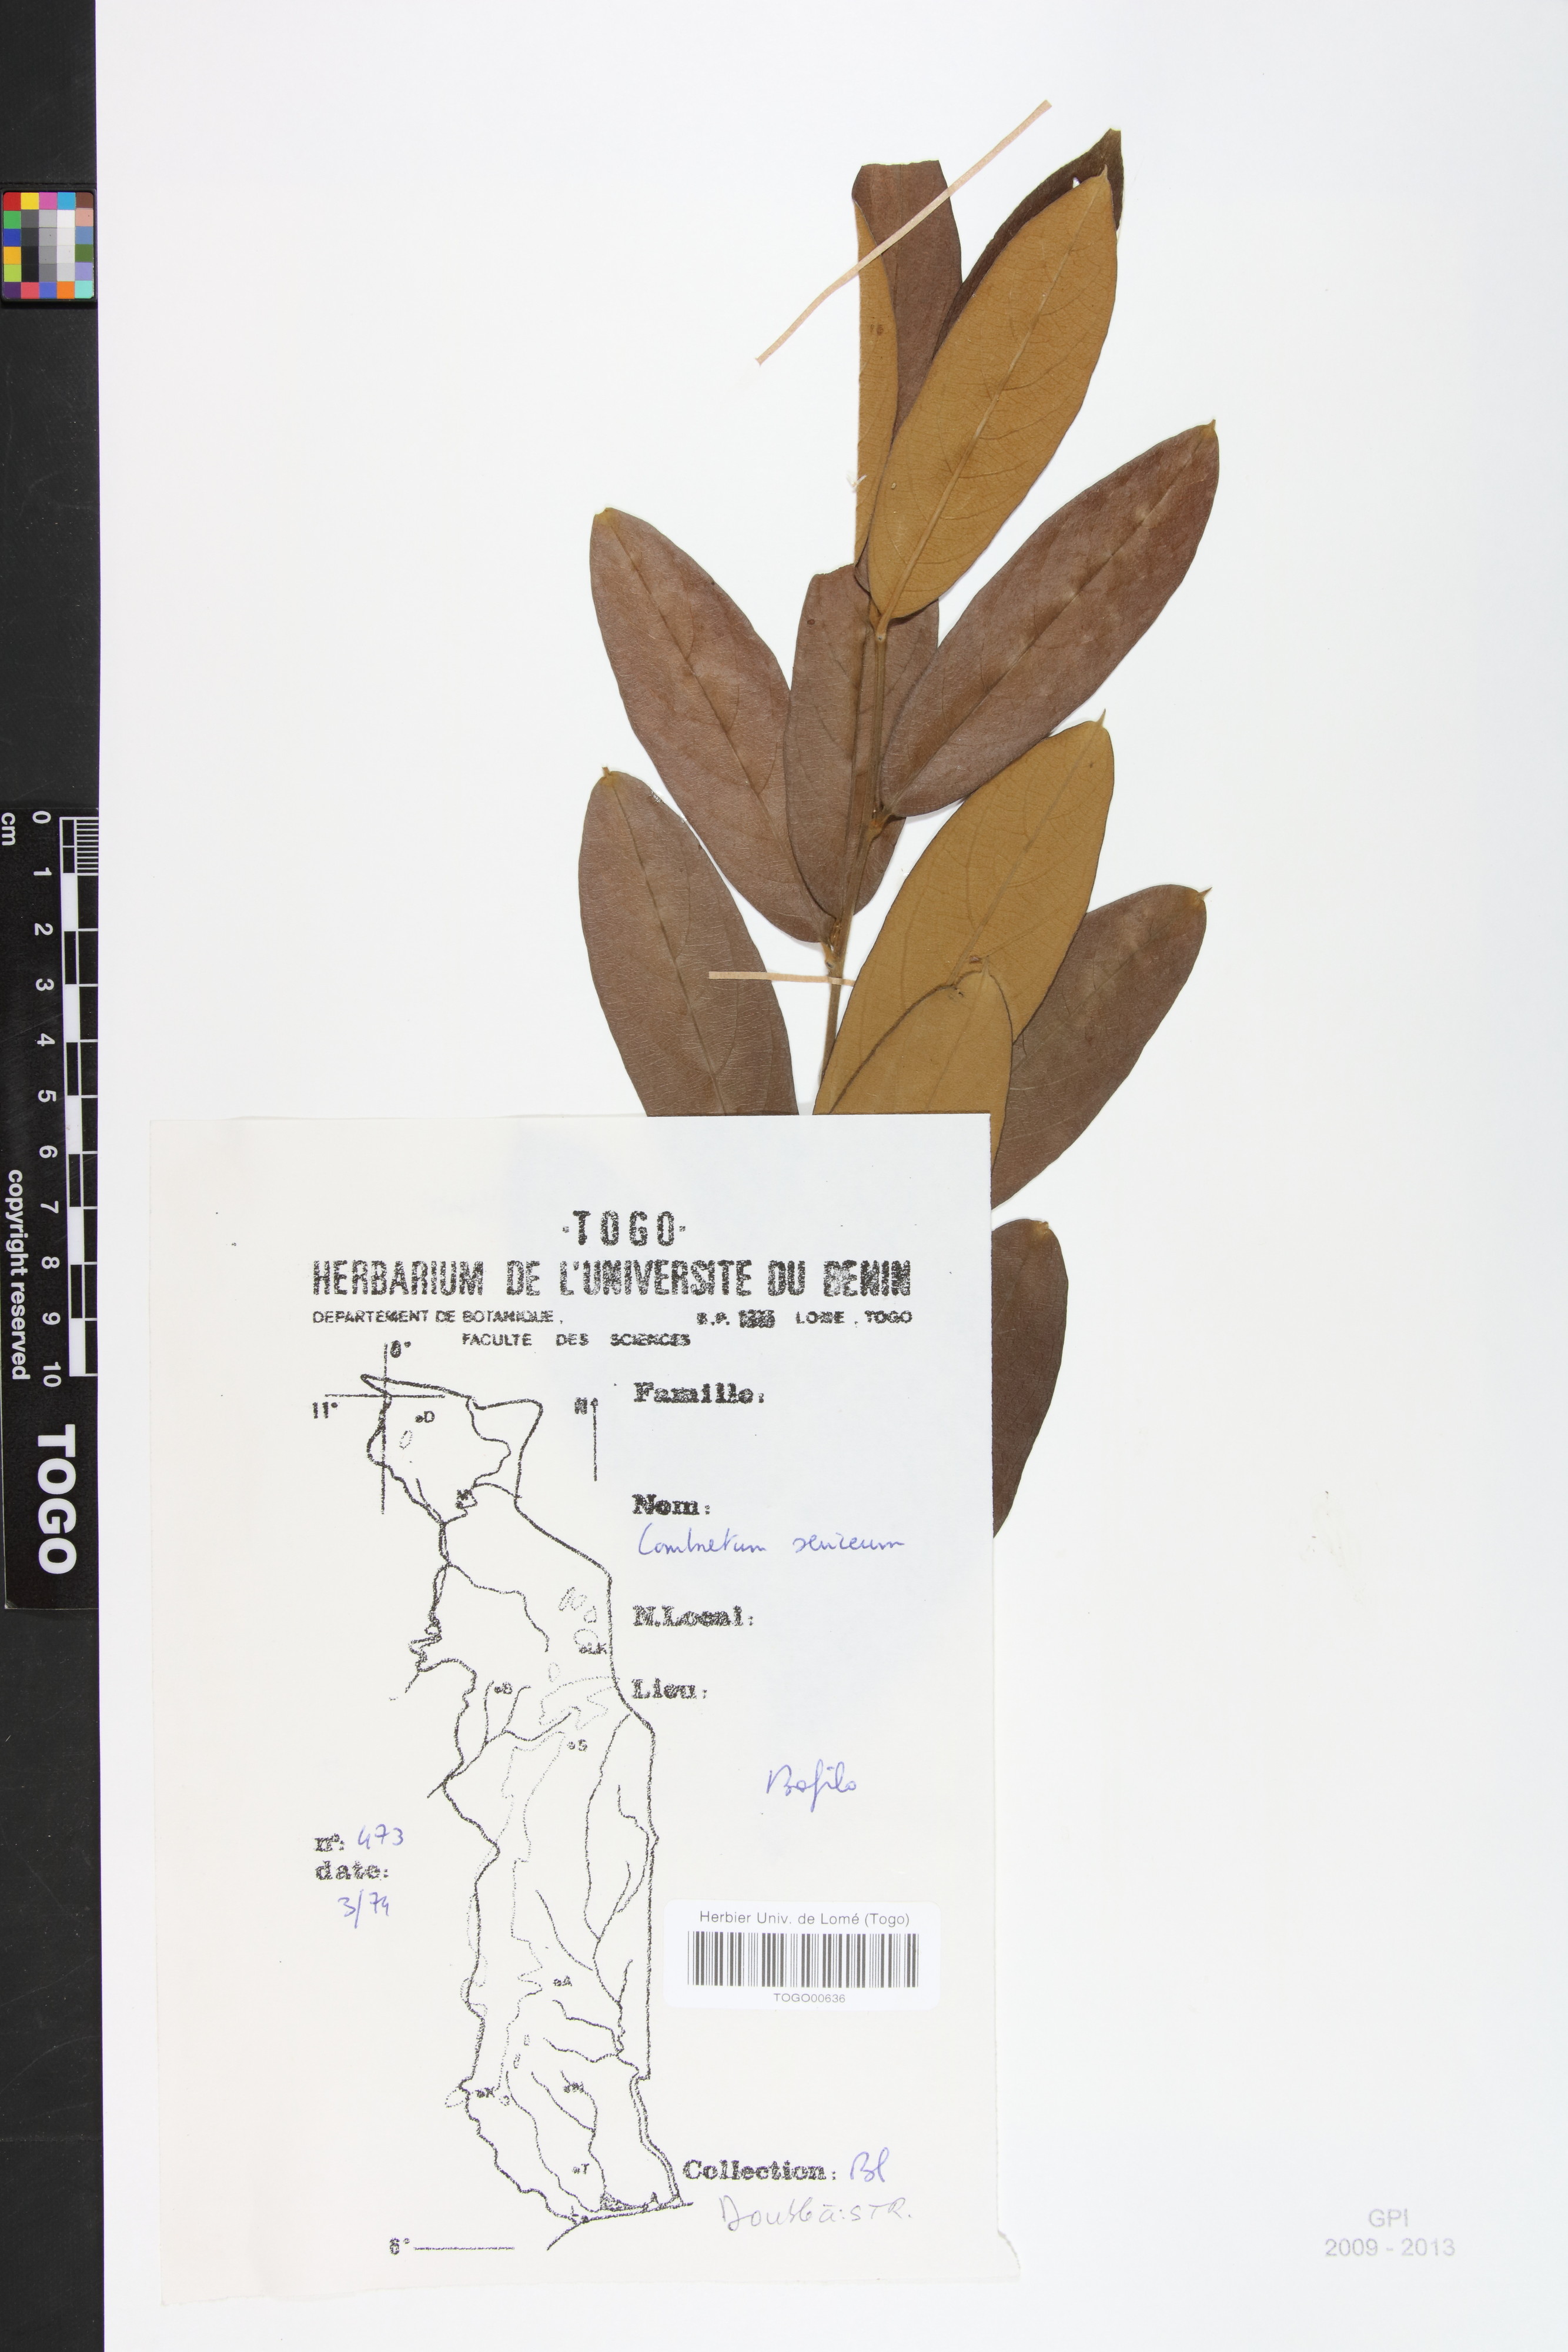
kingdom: Plantae
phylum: Tracheophyta
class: Magnoliopsida
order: Myrtales
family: Combretaceae
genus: Combretum
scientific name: Combretum sericeum
